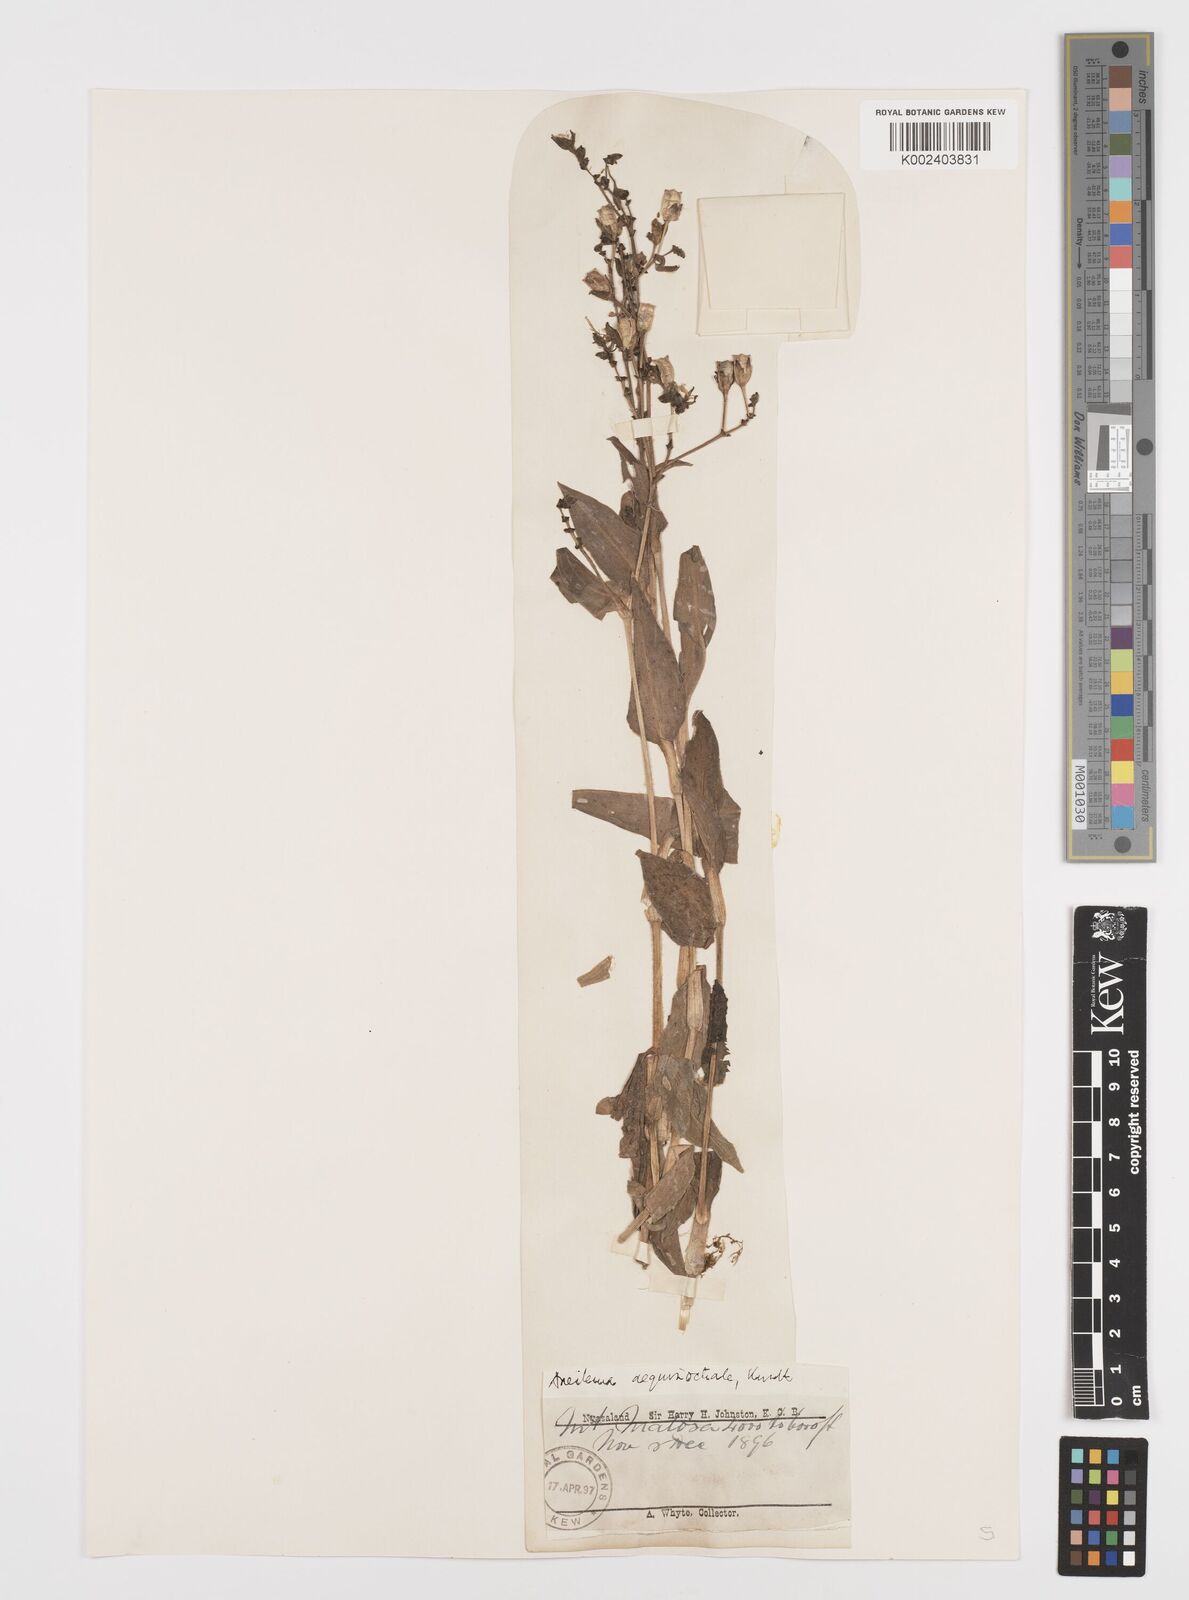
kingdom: Plantae
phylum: Tracheophyta
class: Liliopsida
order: Commelinales
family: Commelinaceae
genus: Aneilema
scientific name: Aneilema aequinoctiale
